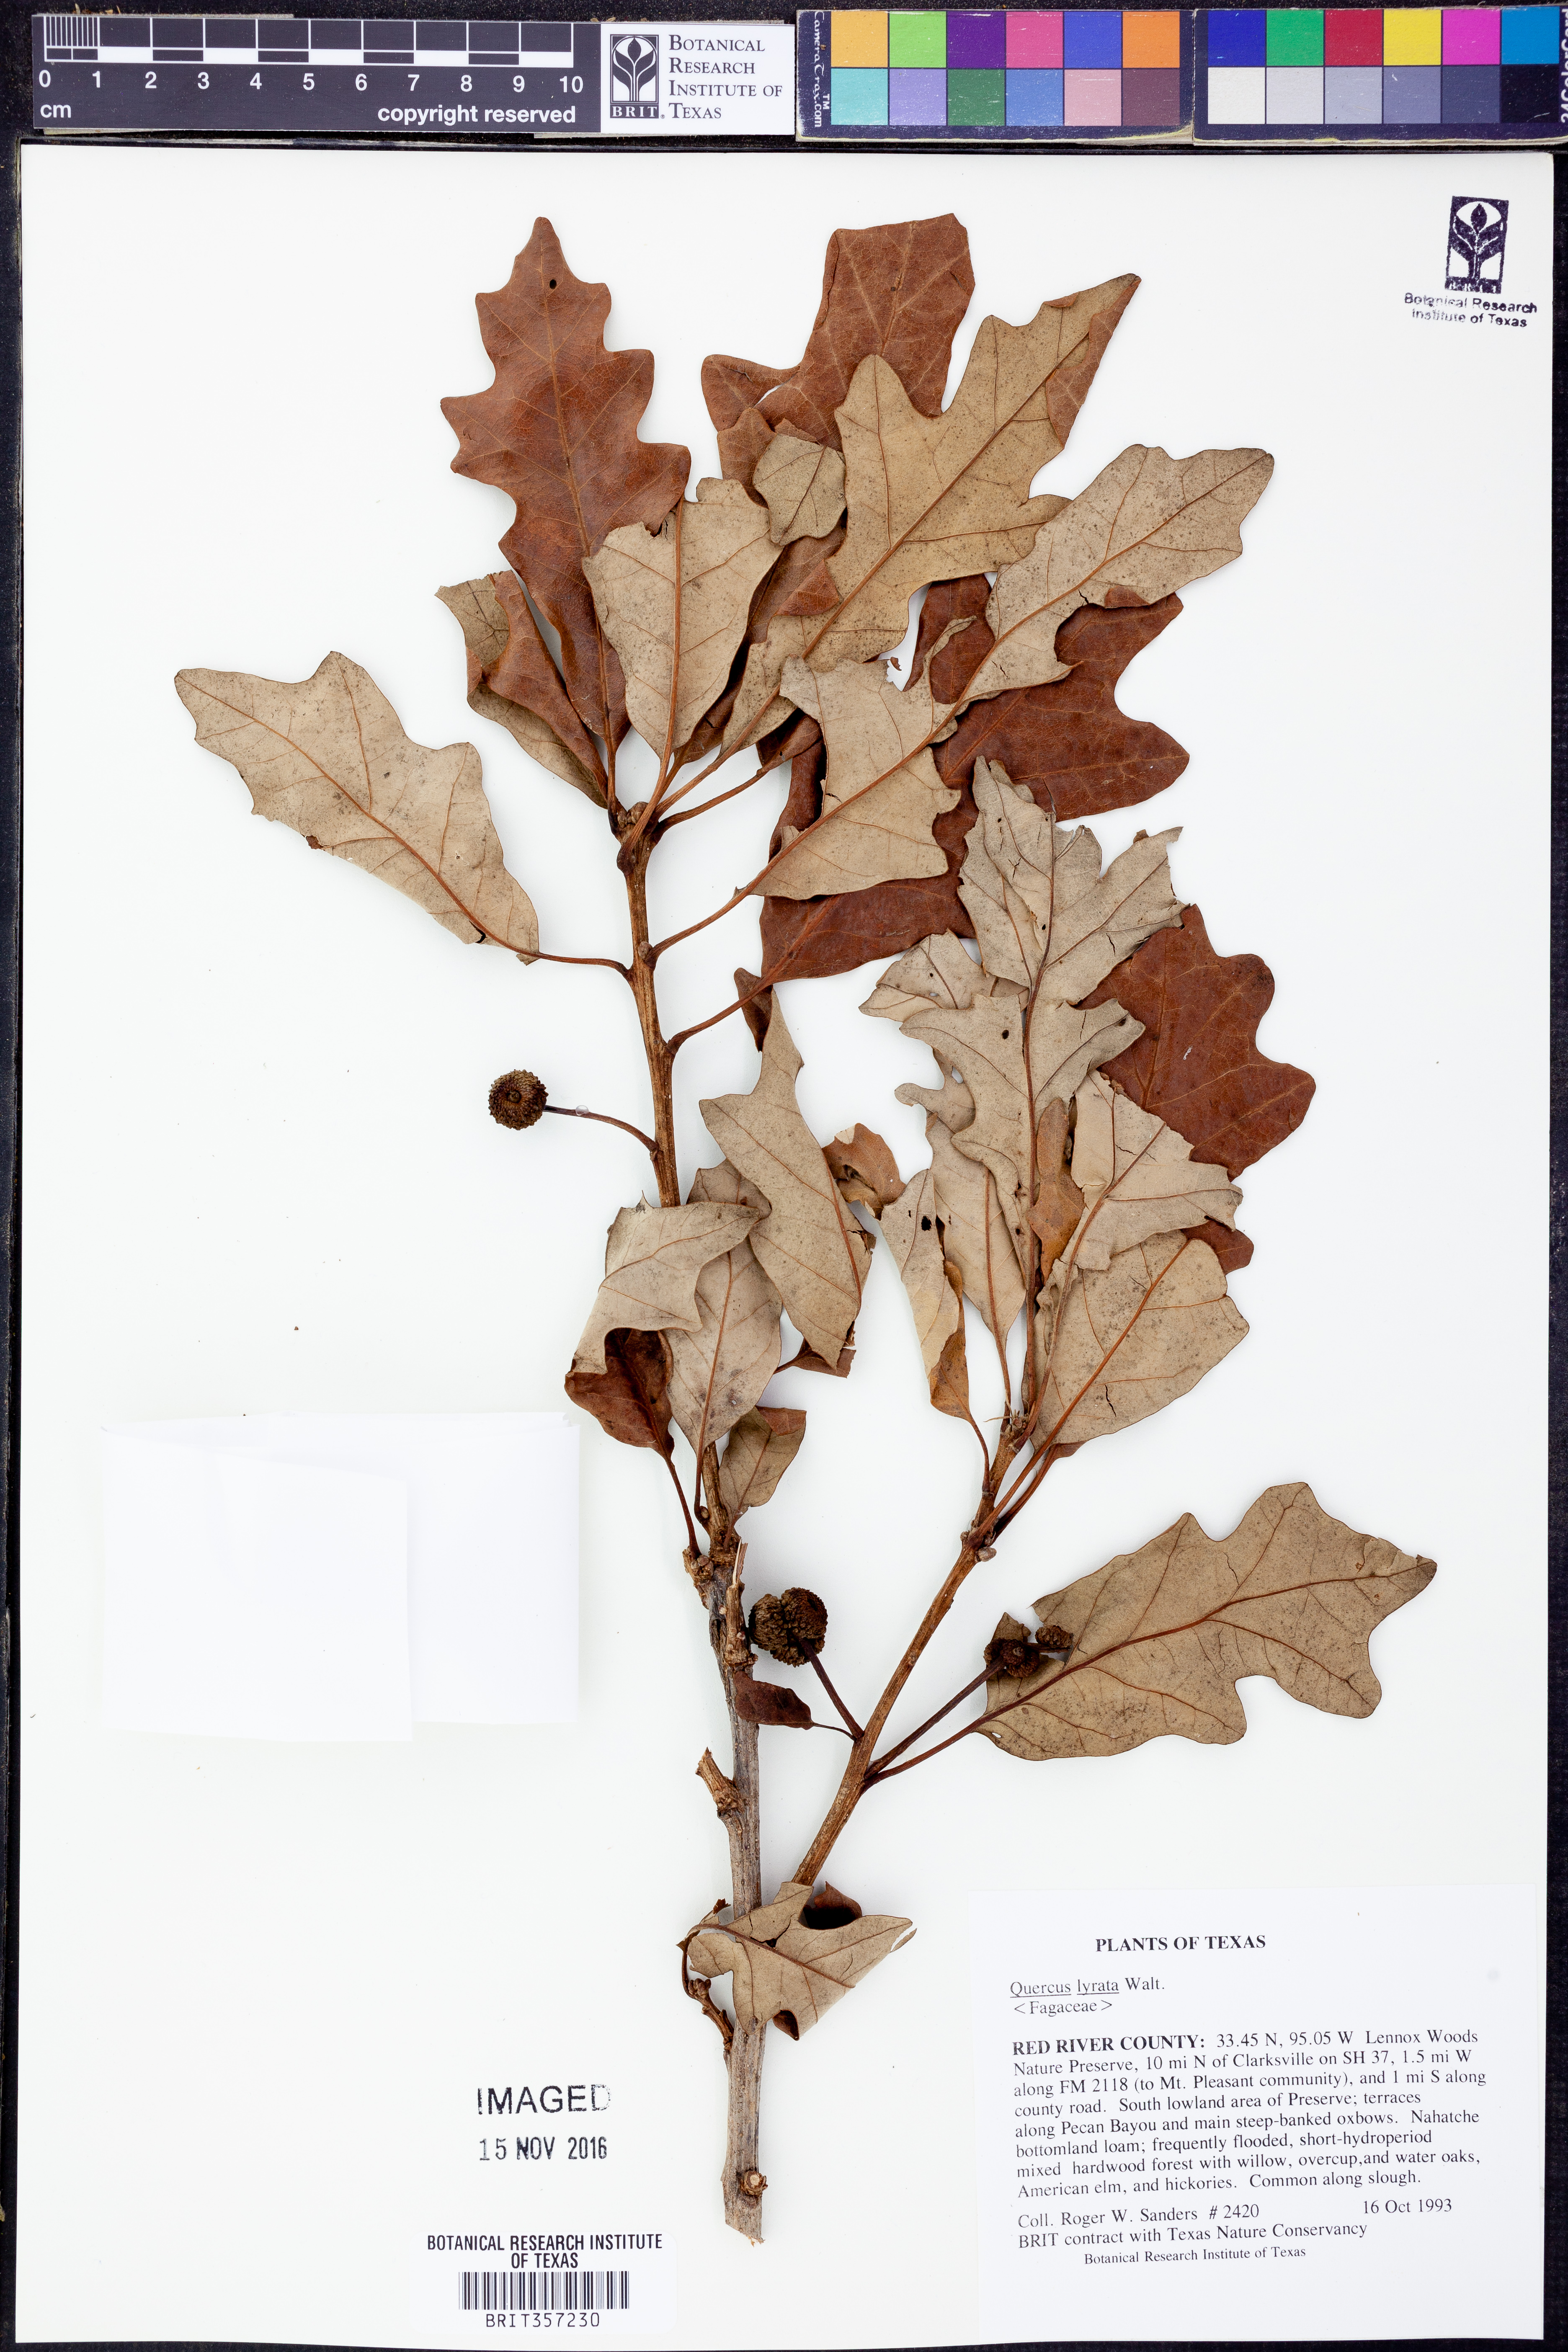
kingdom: Plantae
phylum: Tracheophyta
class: Magnoliopsida
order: Fagales
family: Fagaceae
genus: Quercus
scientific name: Quercus lyrata
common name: Overcup oak
